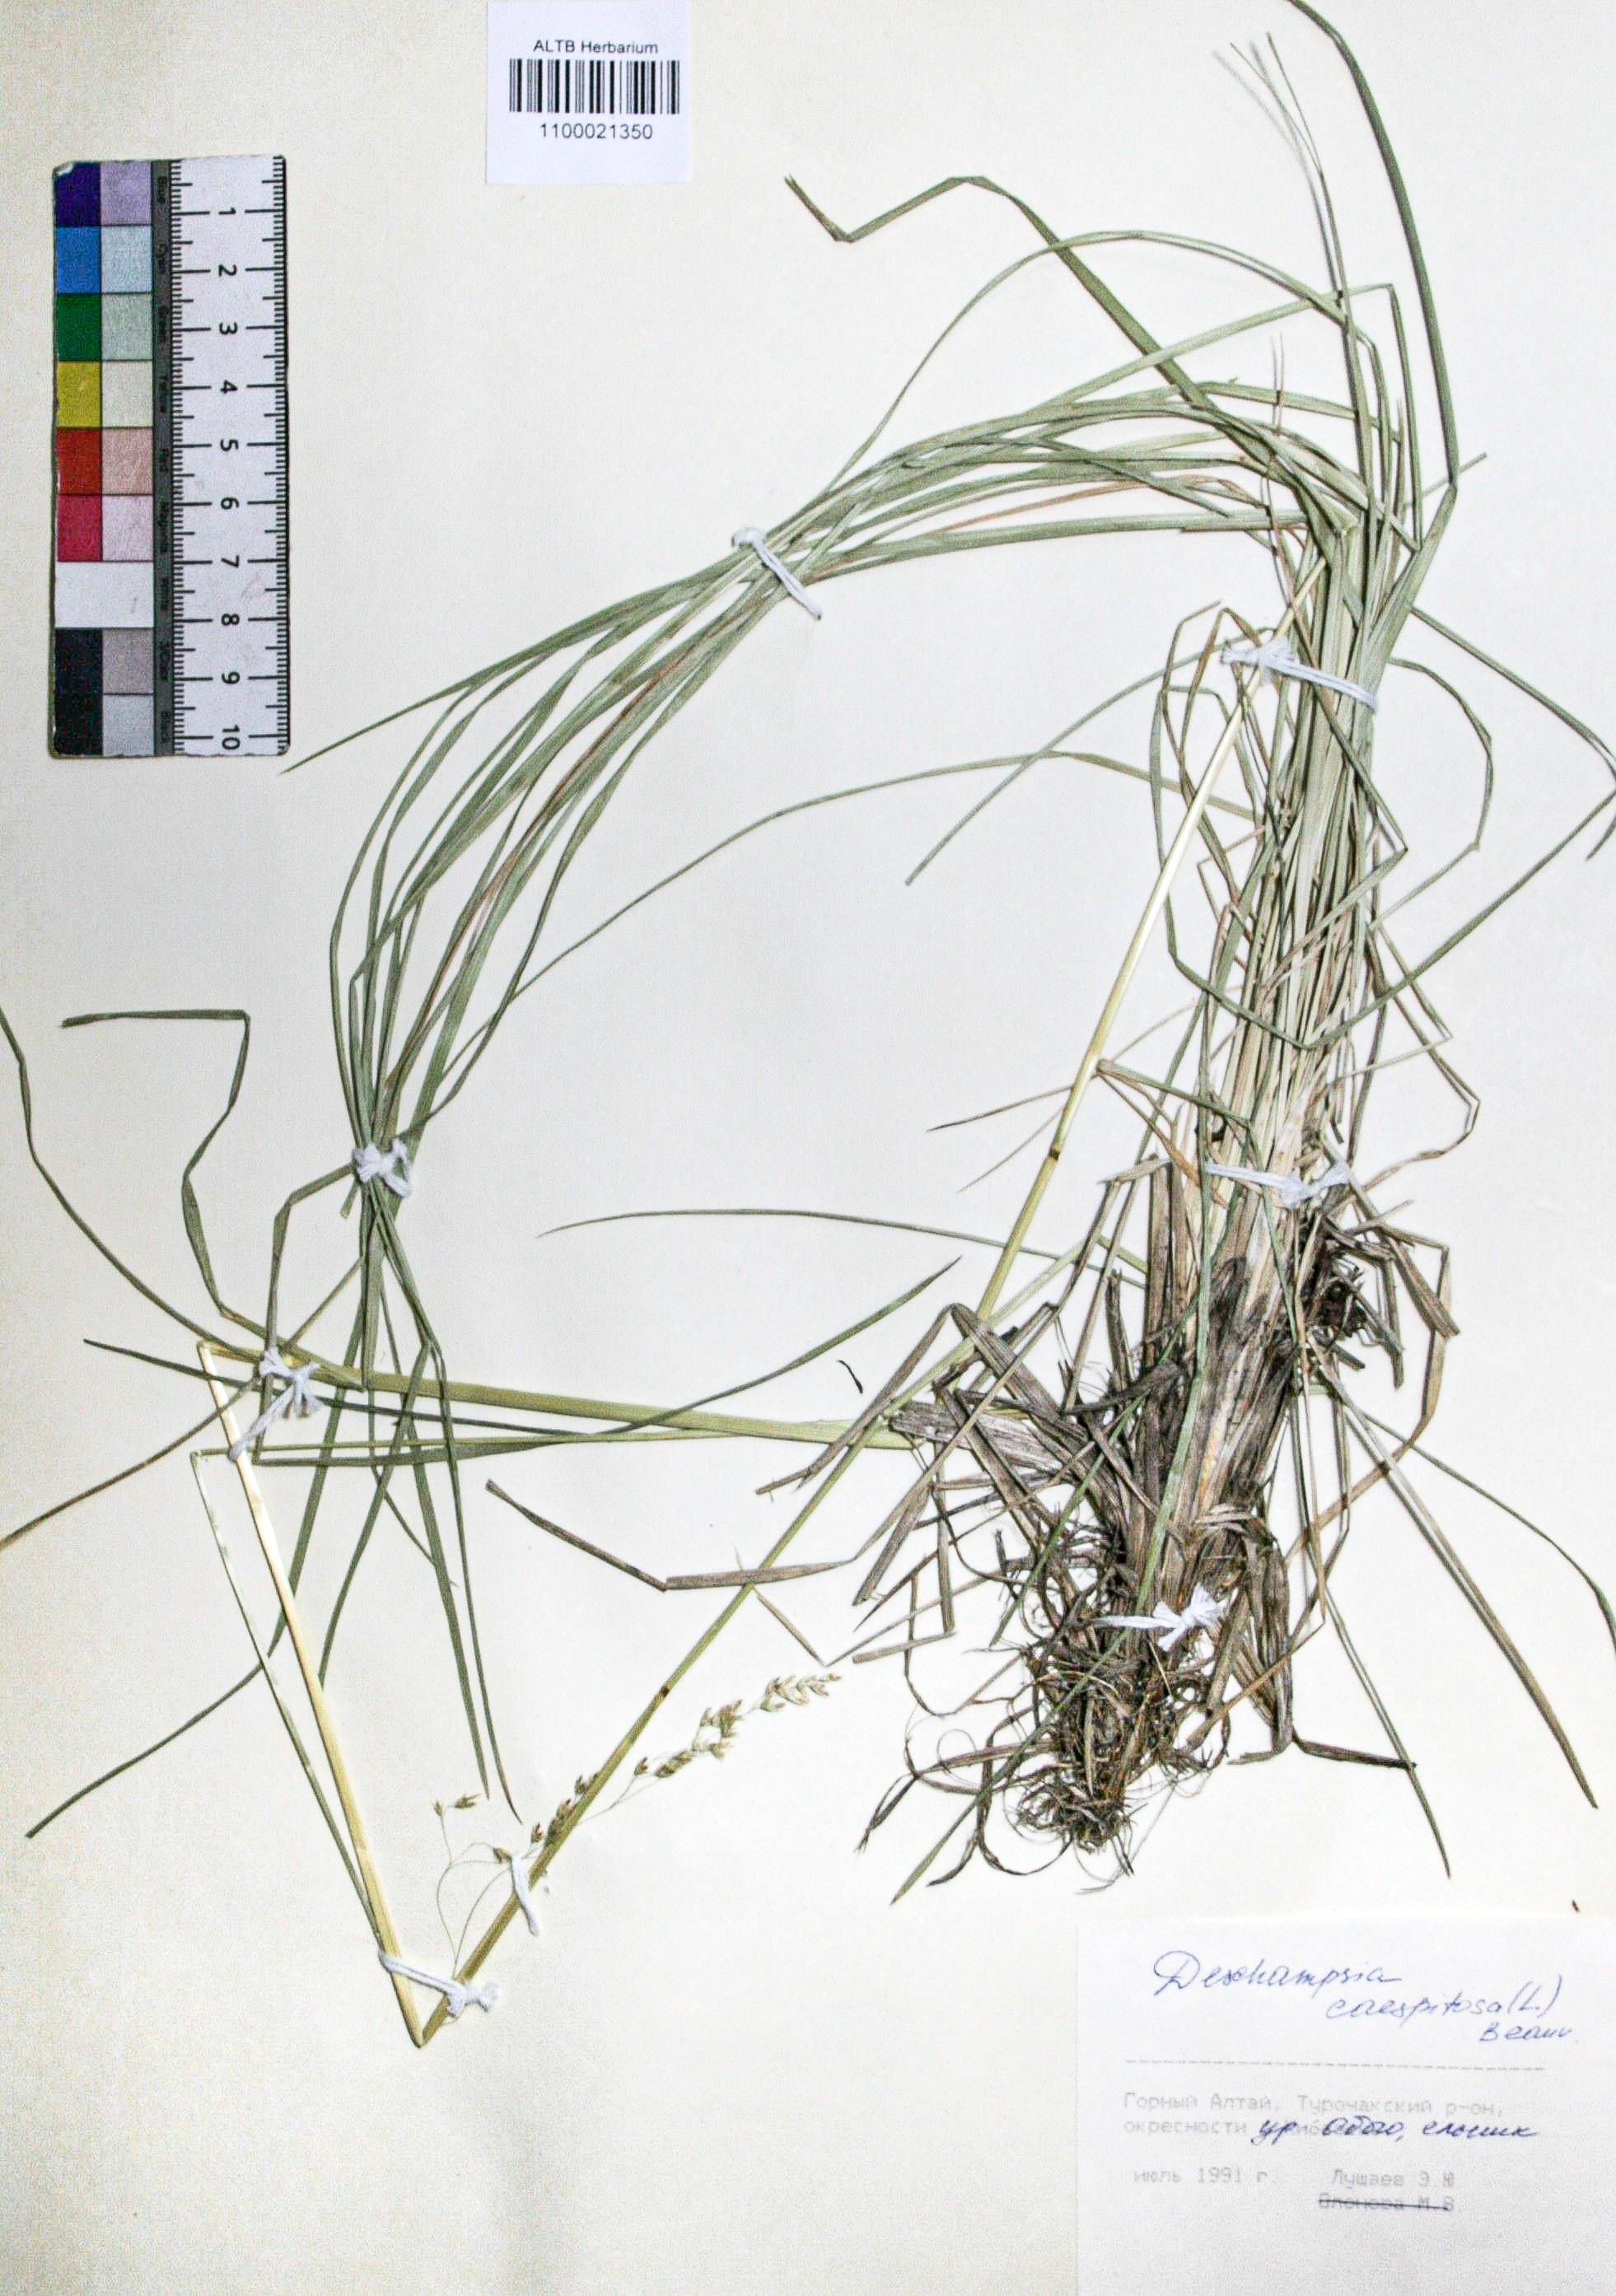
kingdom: Plantae
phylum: Tracheophyta
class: Liliopsida
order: Poales
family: Poaceae
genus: Deschampsia
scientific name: Deschampsia cespitosa
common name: Tufted hair-grass
